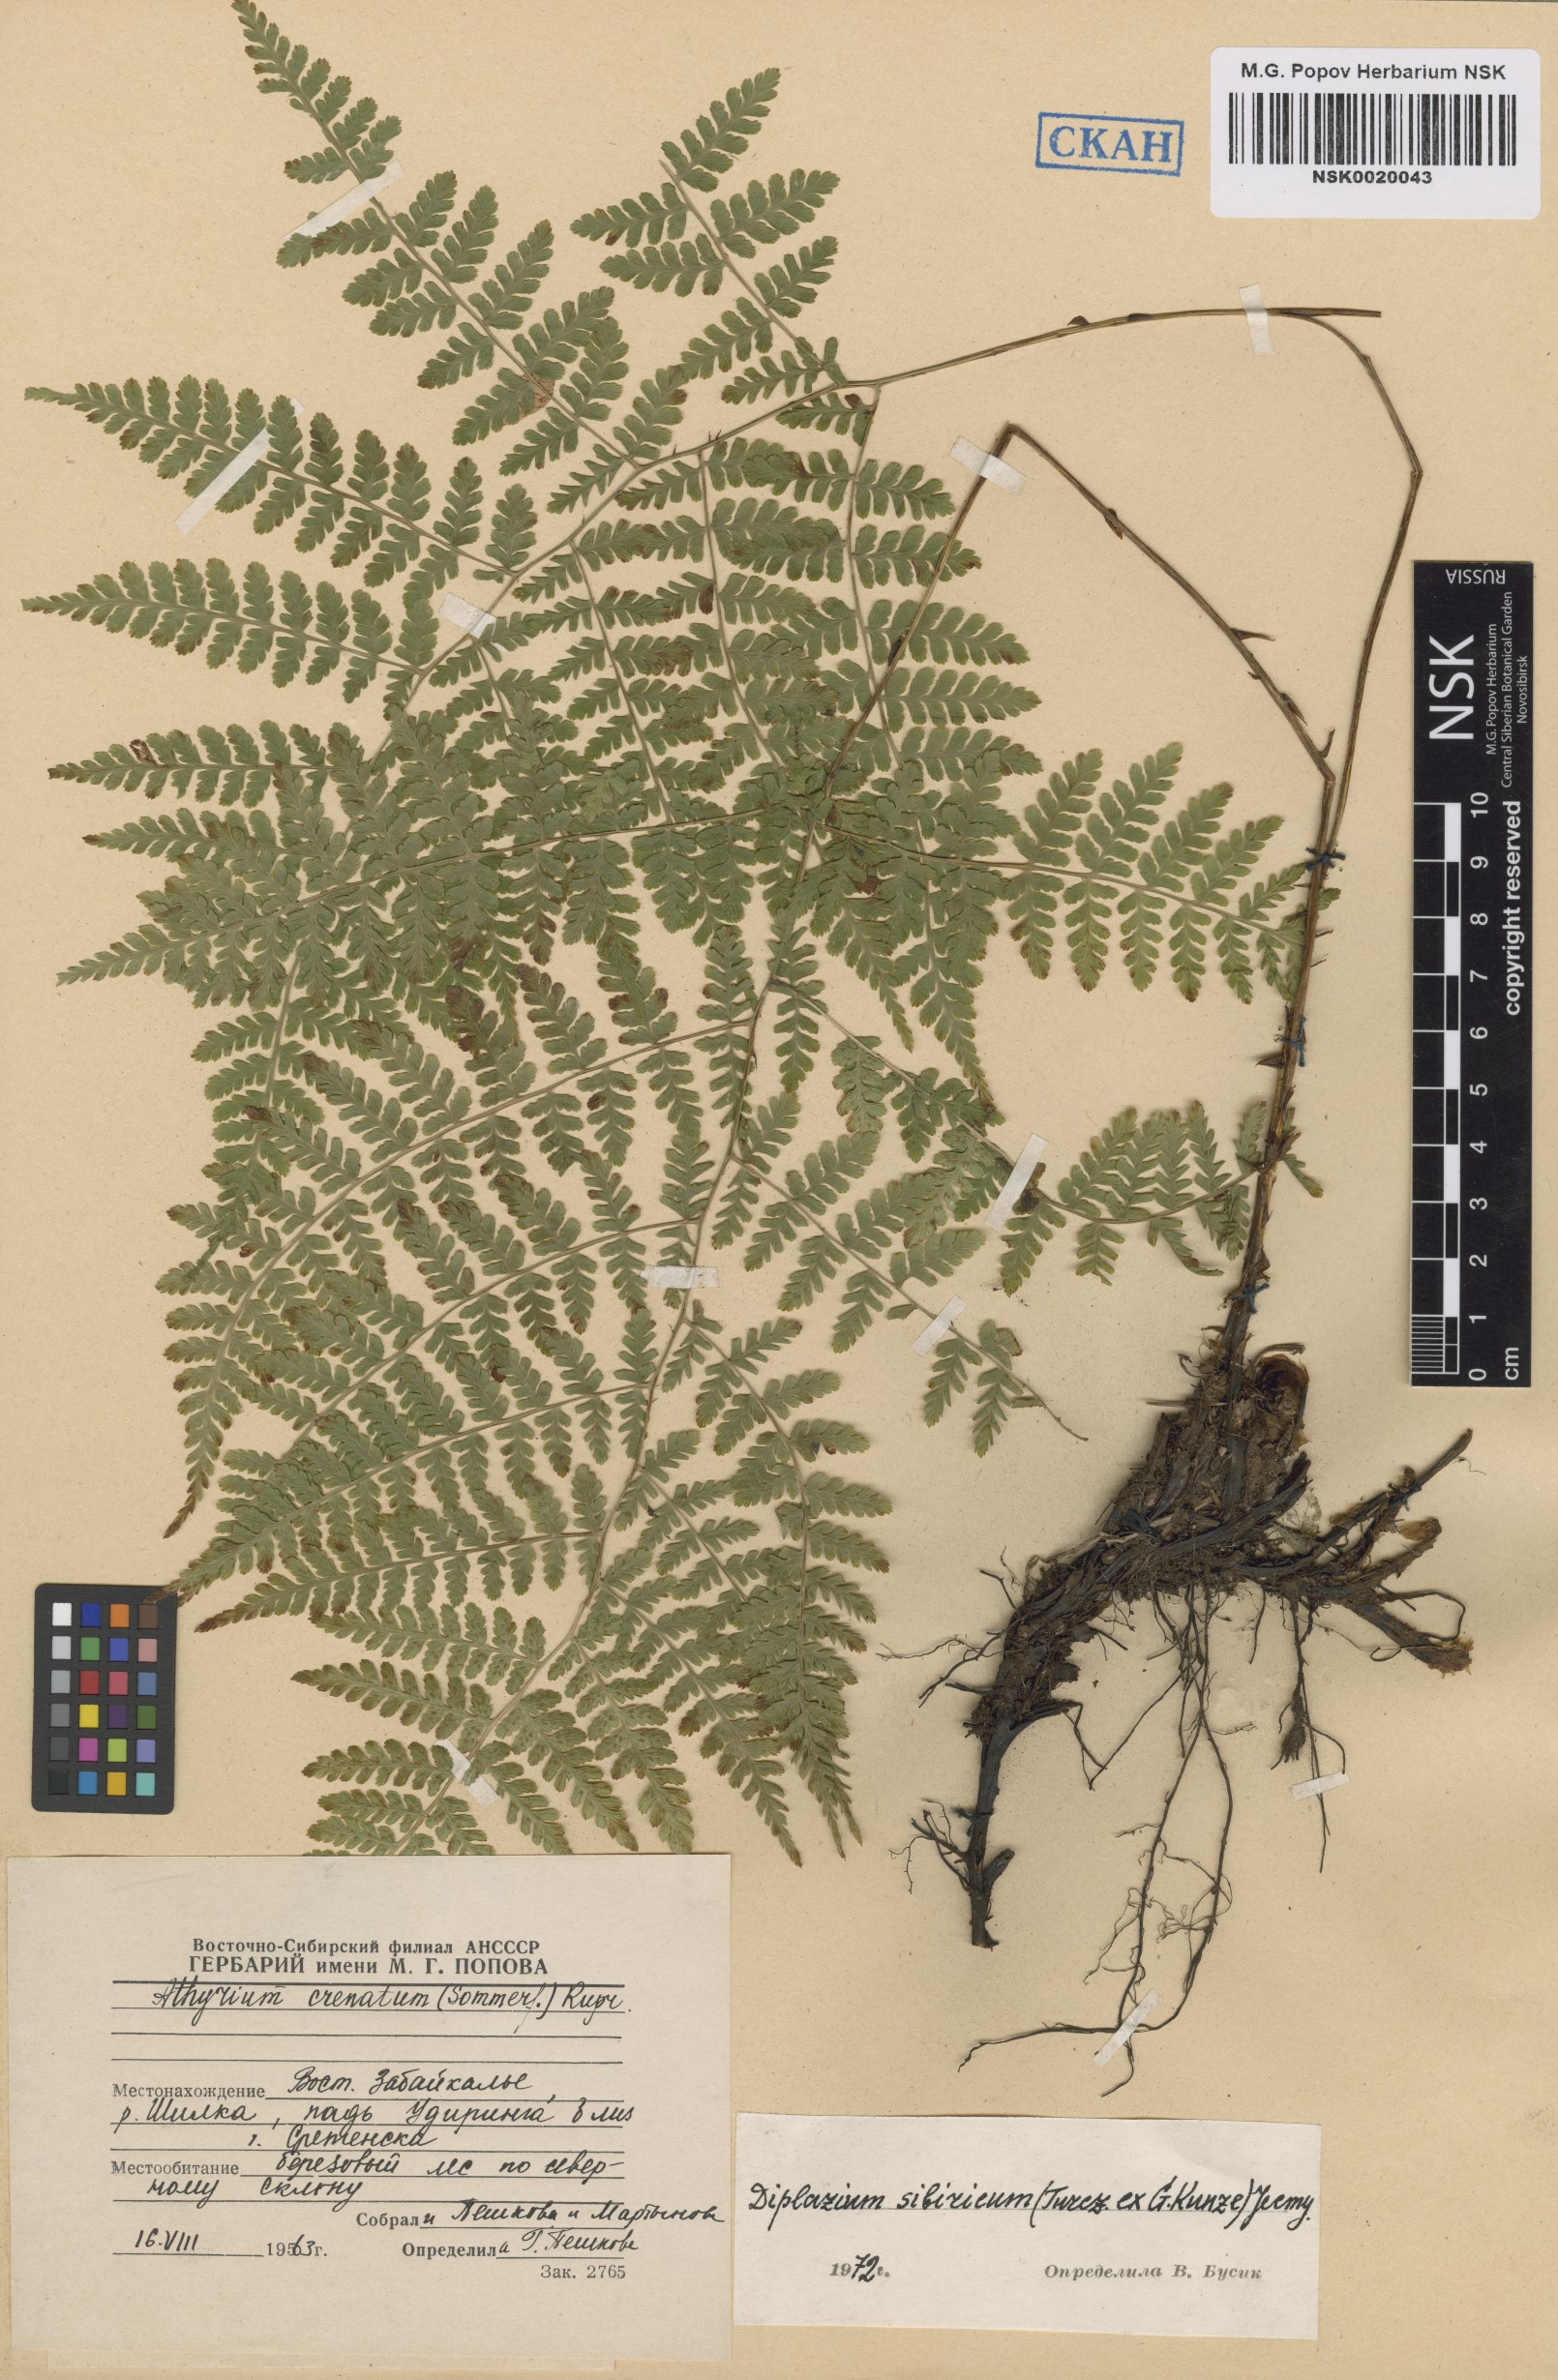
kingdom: Plantae
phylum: Tracheophyta
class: Polypodiopsida
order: Polypodiales
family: Athyriaceae
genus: Diplazium
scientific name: Diplazium sibiricum
